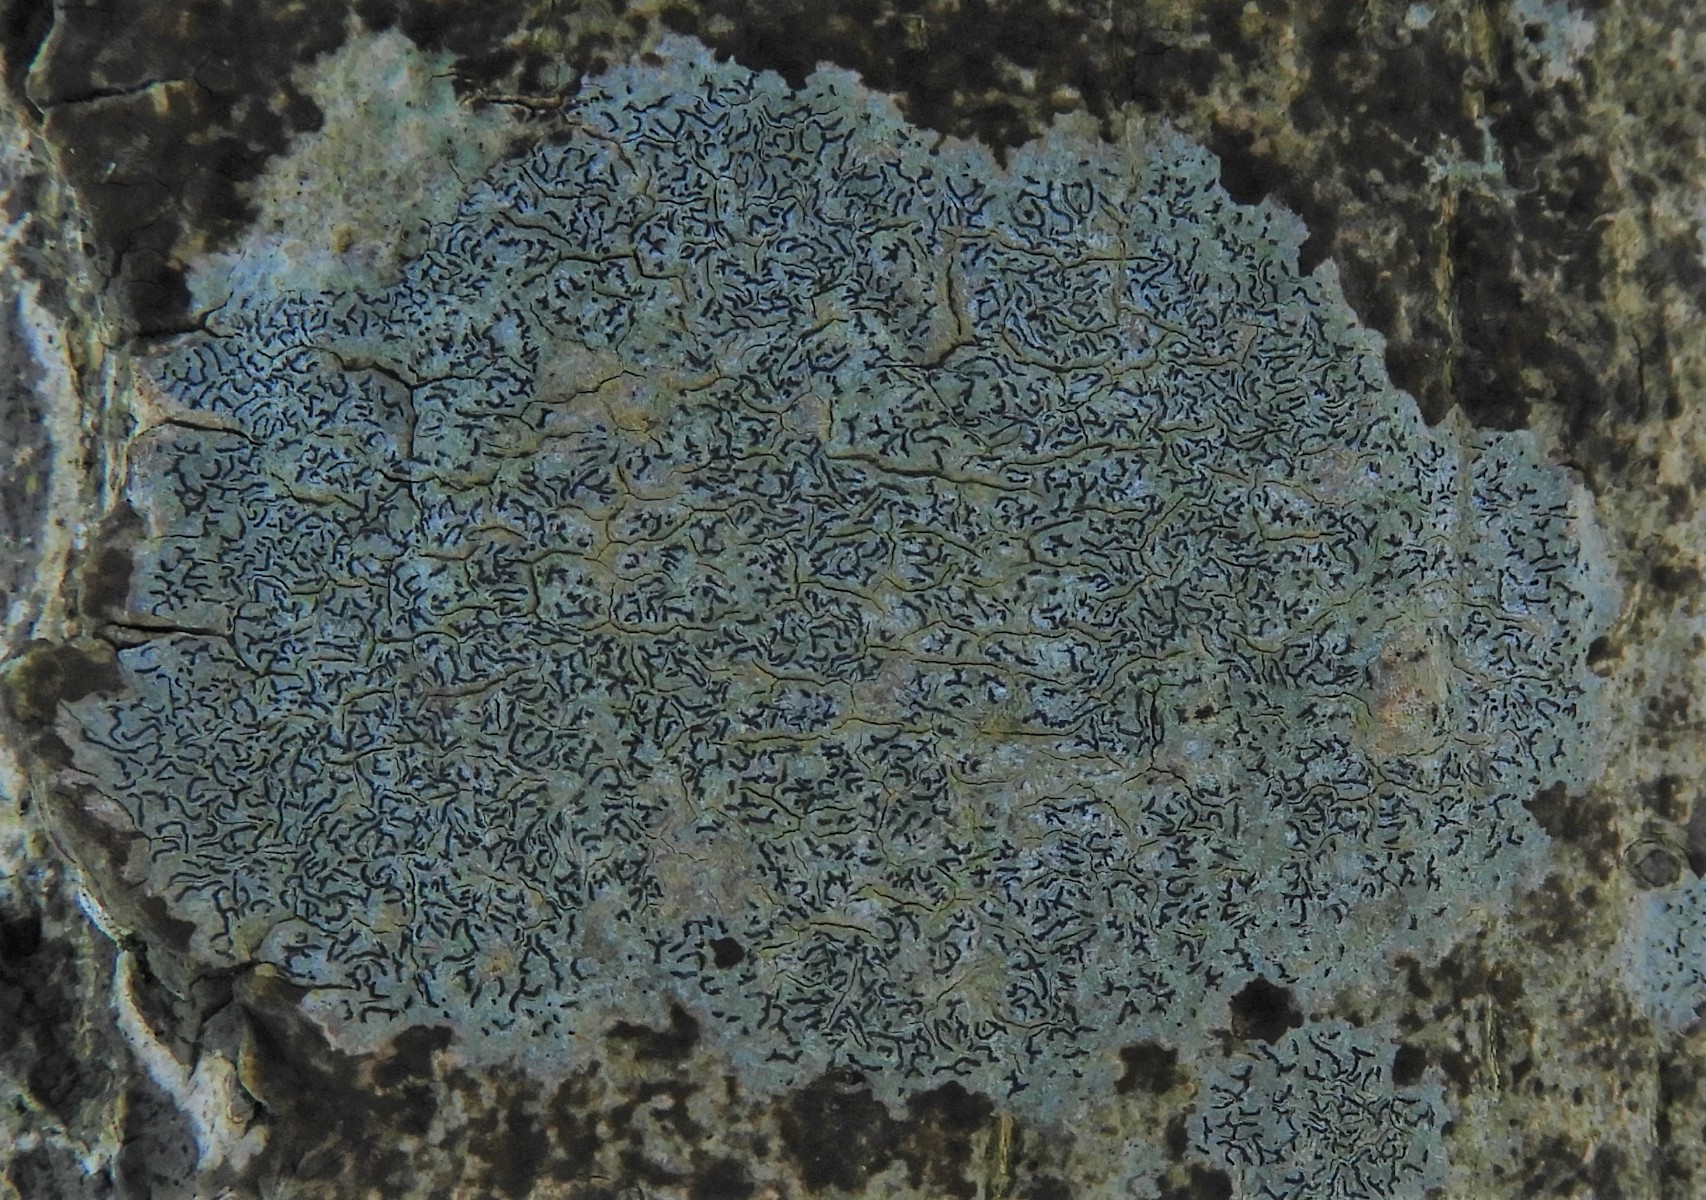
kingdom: Fungi
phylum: Ascomycota
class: Lecanoromycetes
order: Ostropales
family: Graphidaceae
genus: Graphis
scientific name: Graphis scripta
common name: almindelig skriftlav
